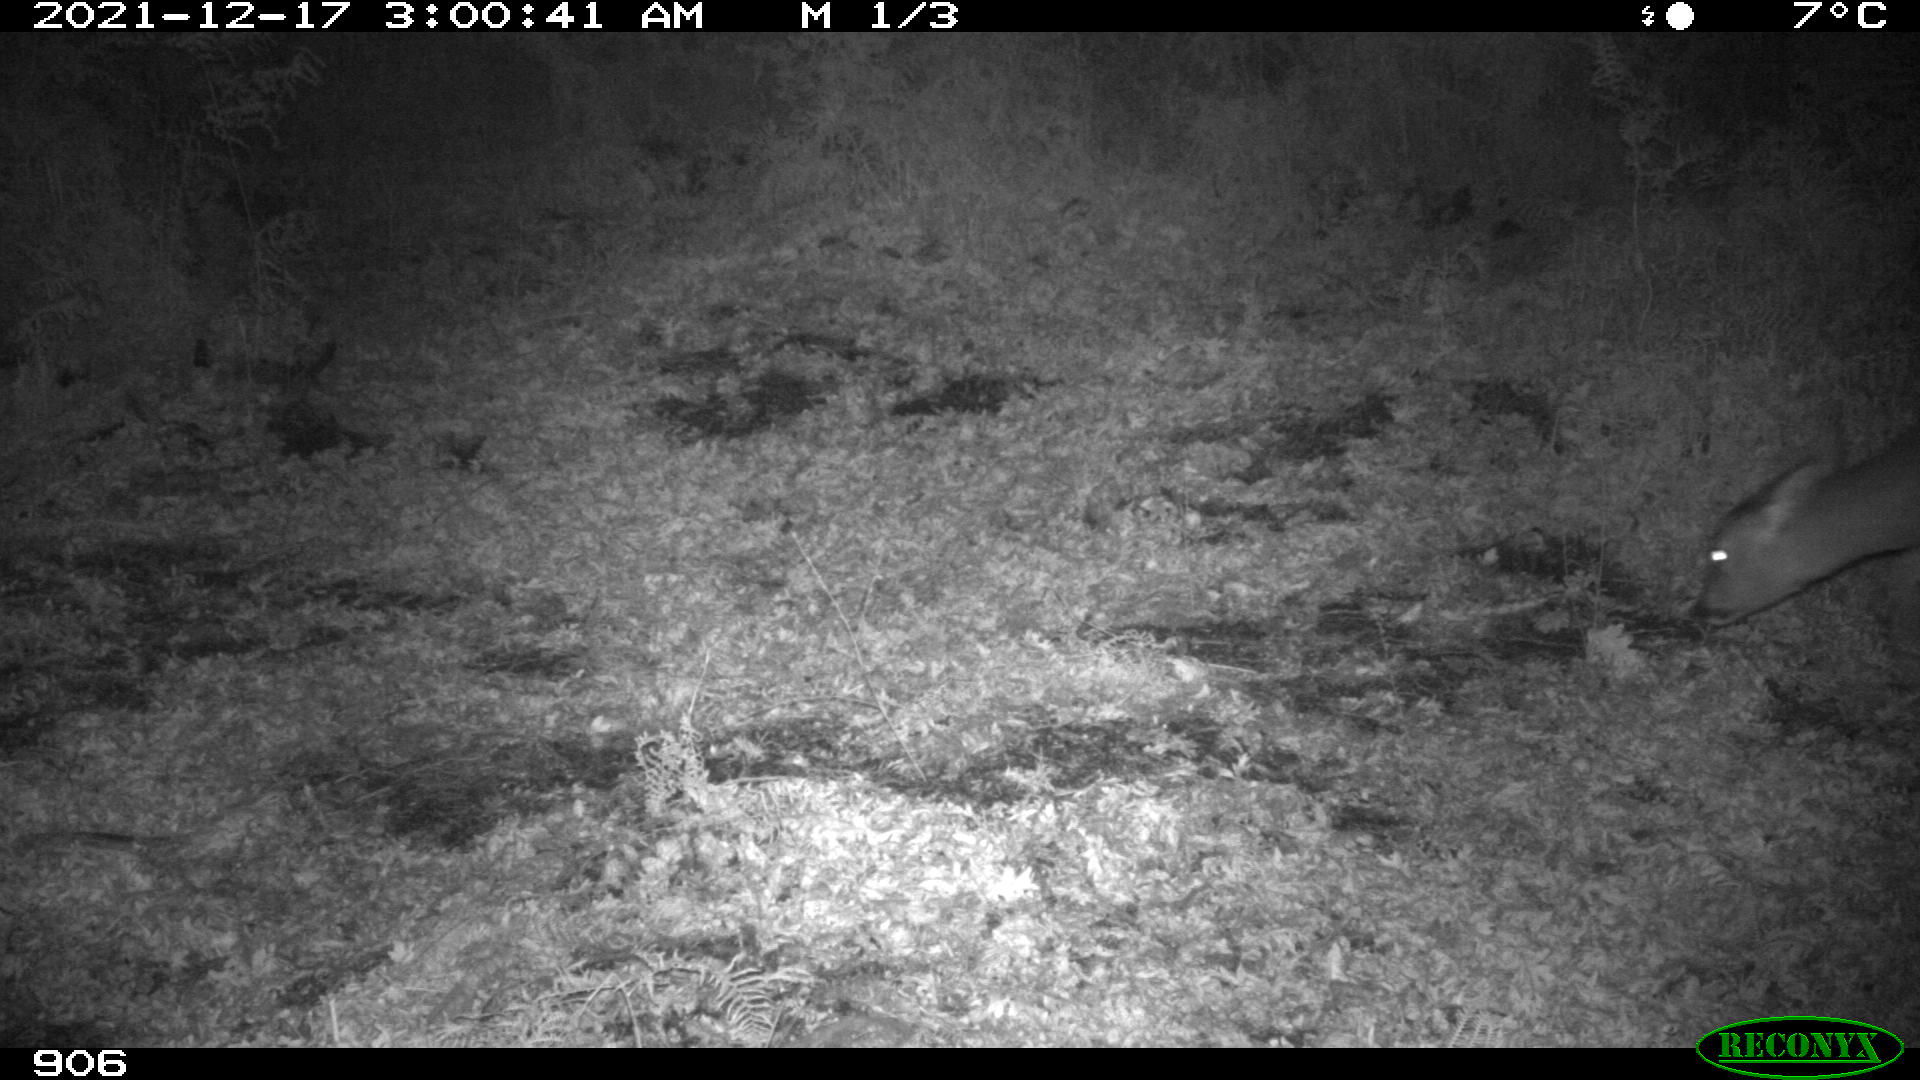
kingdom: Animalia
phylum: Chordata
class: Mammalia
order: Artiodactyla
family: Cervidae
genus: Capreolus
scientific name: Capreolus capreolus
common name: Western roe deer
